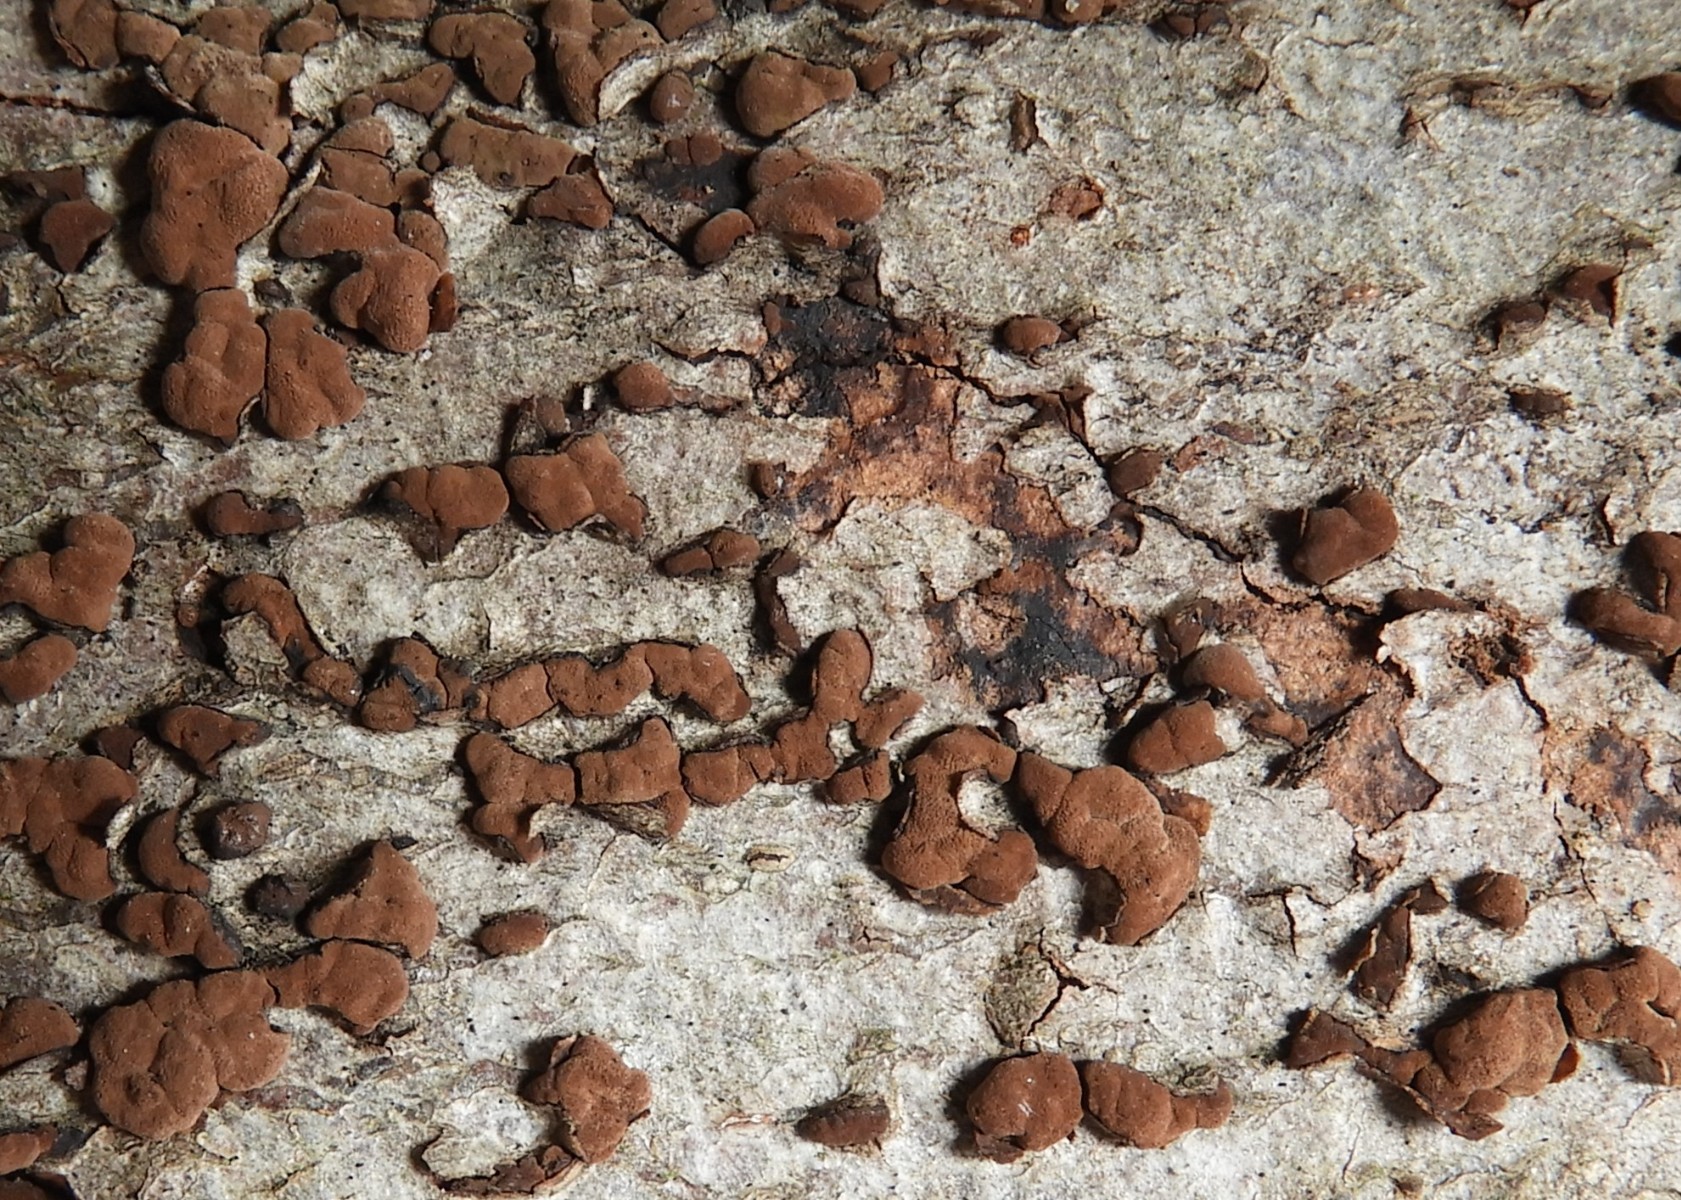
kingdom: Fungi
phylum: Ascomycota
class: Sordariomycetes
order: Xylariales
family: Hypoxylaceae
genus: Hypoxylon
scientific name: Hypoxylon
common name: kulbær
